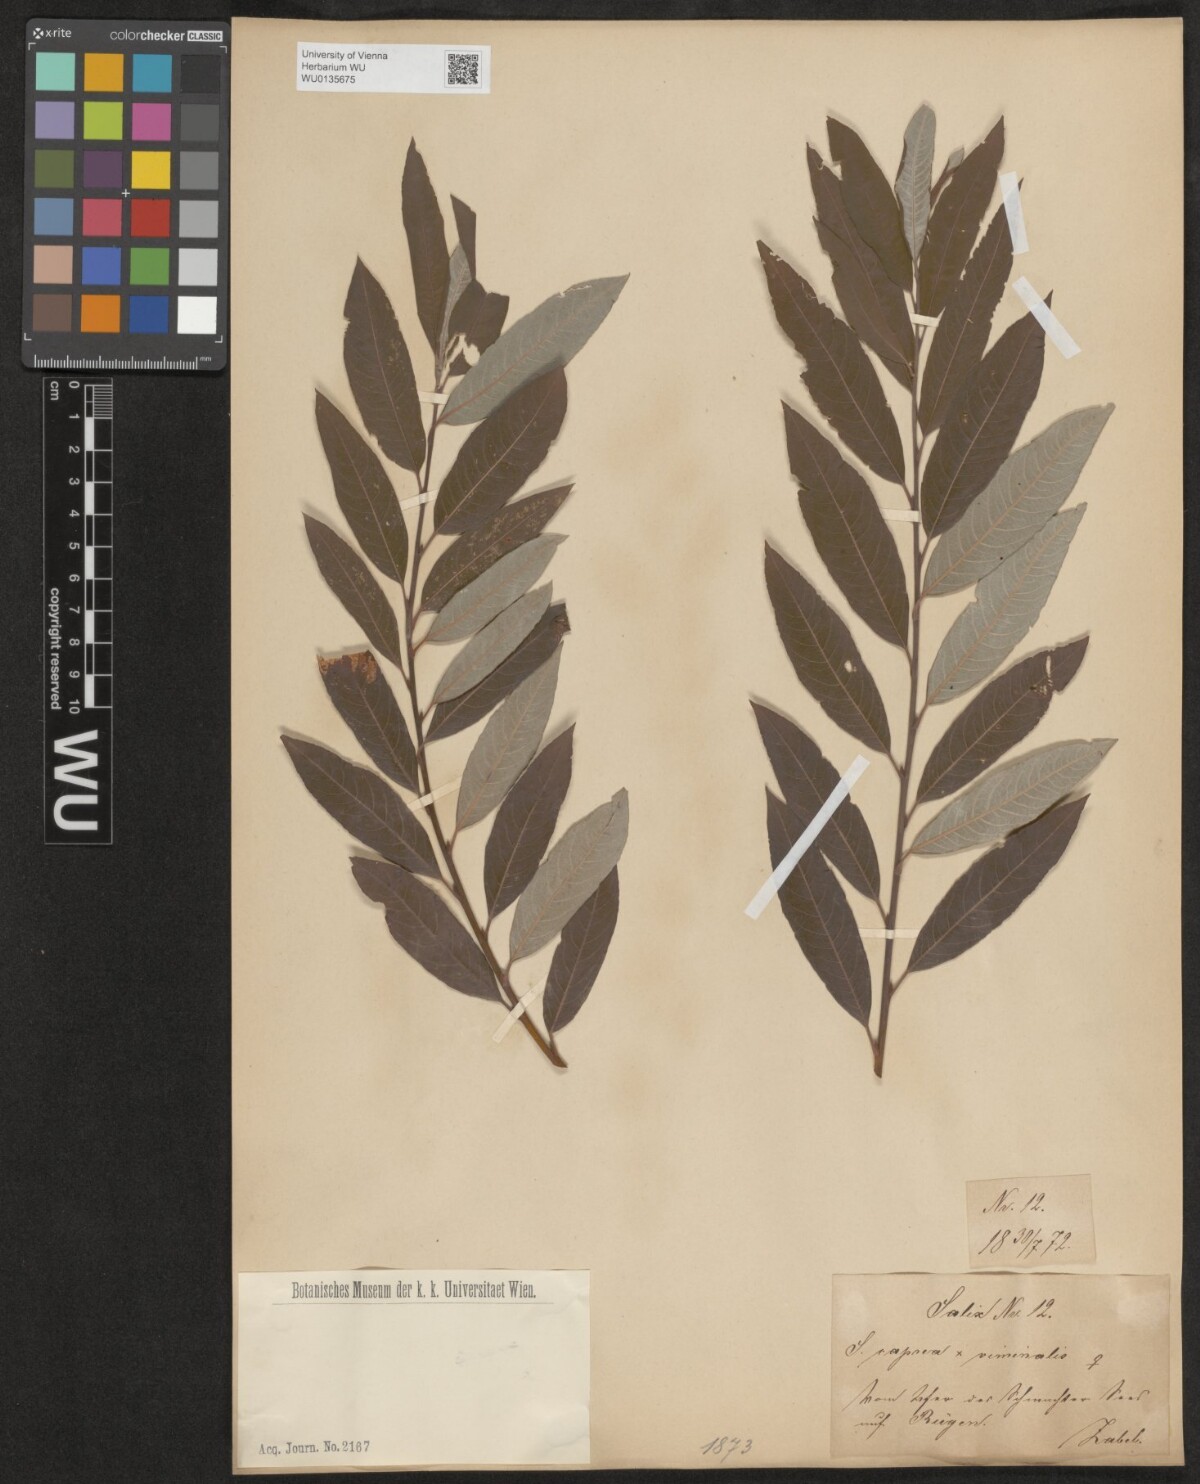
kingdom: Plantae
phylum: Tracheophyta
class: Magnoliopsida
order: Malpighiales
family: Salicaceae
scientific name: Salicaceae
